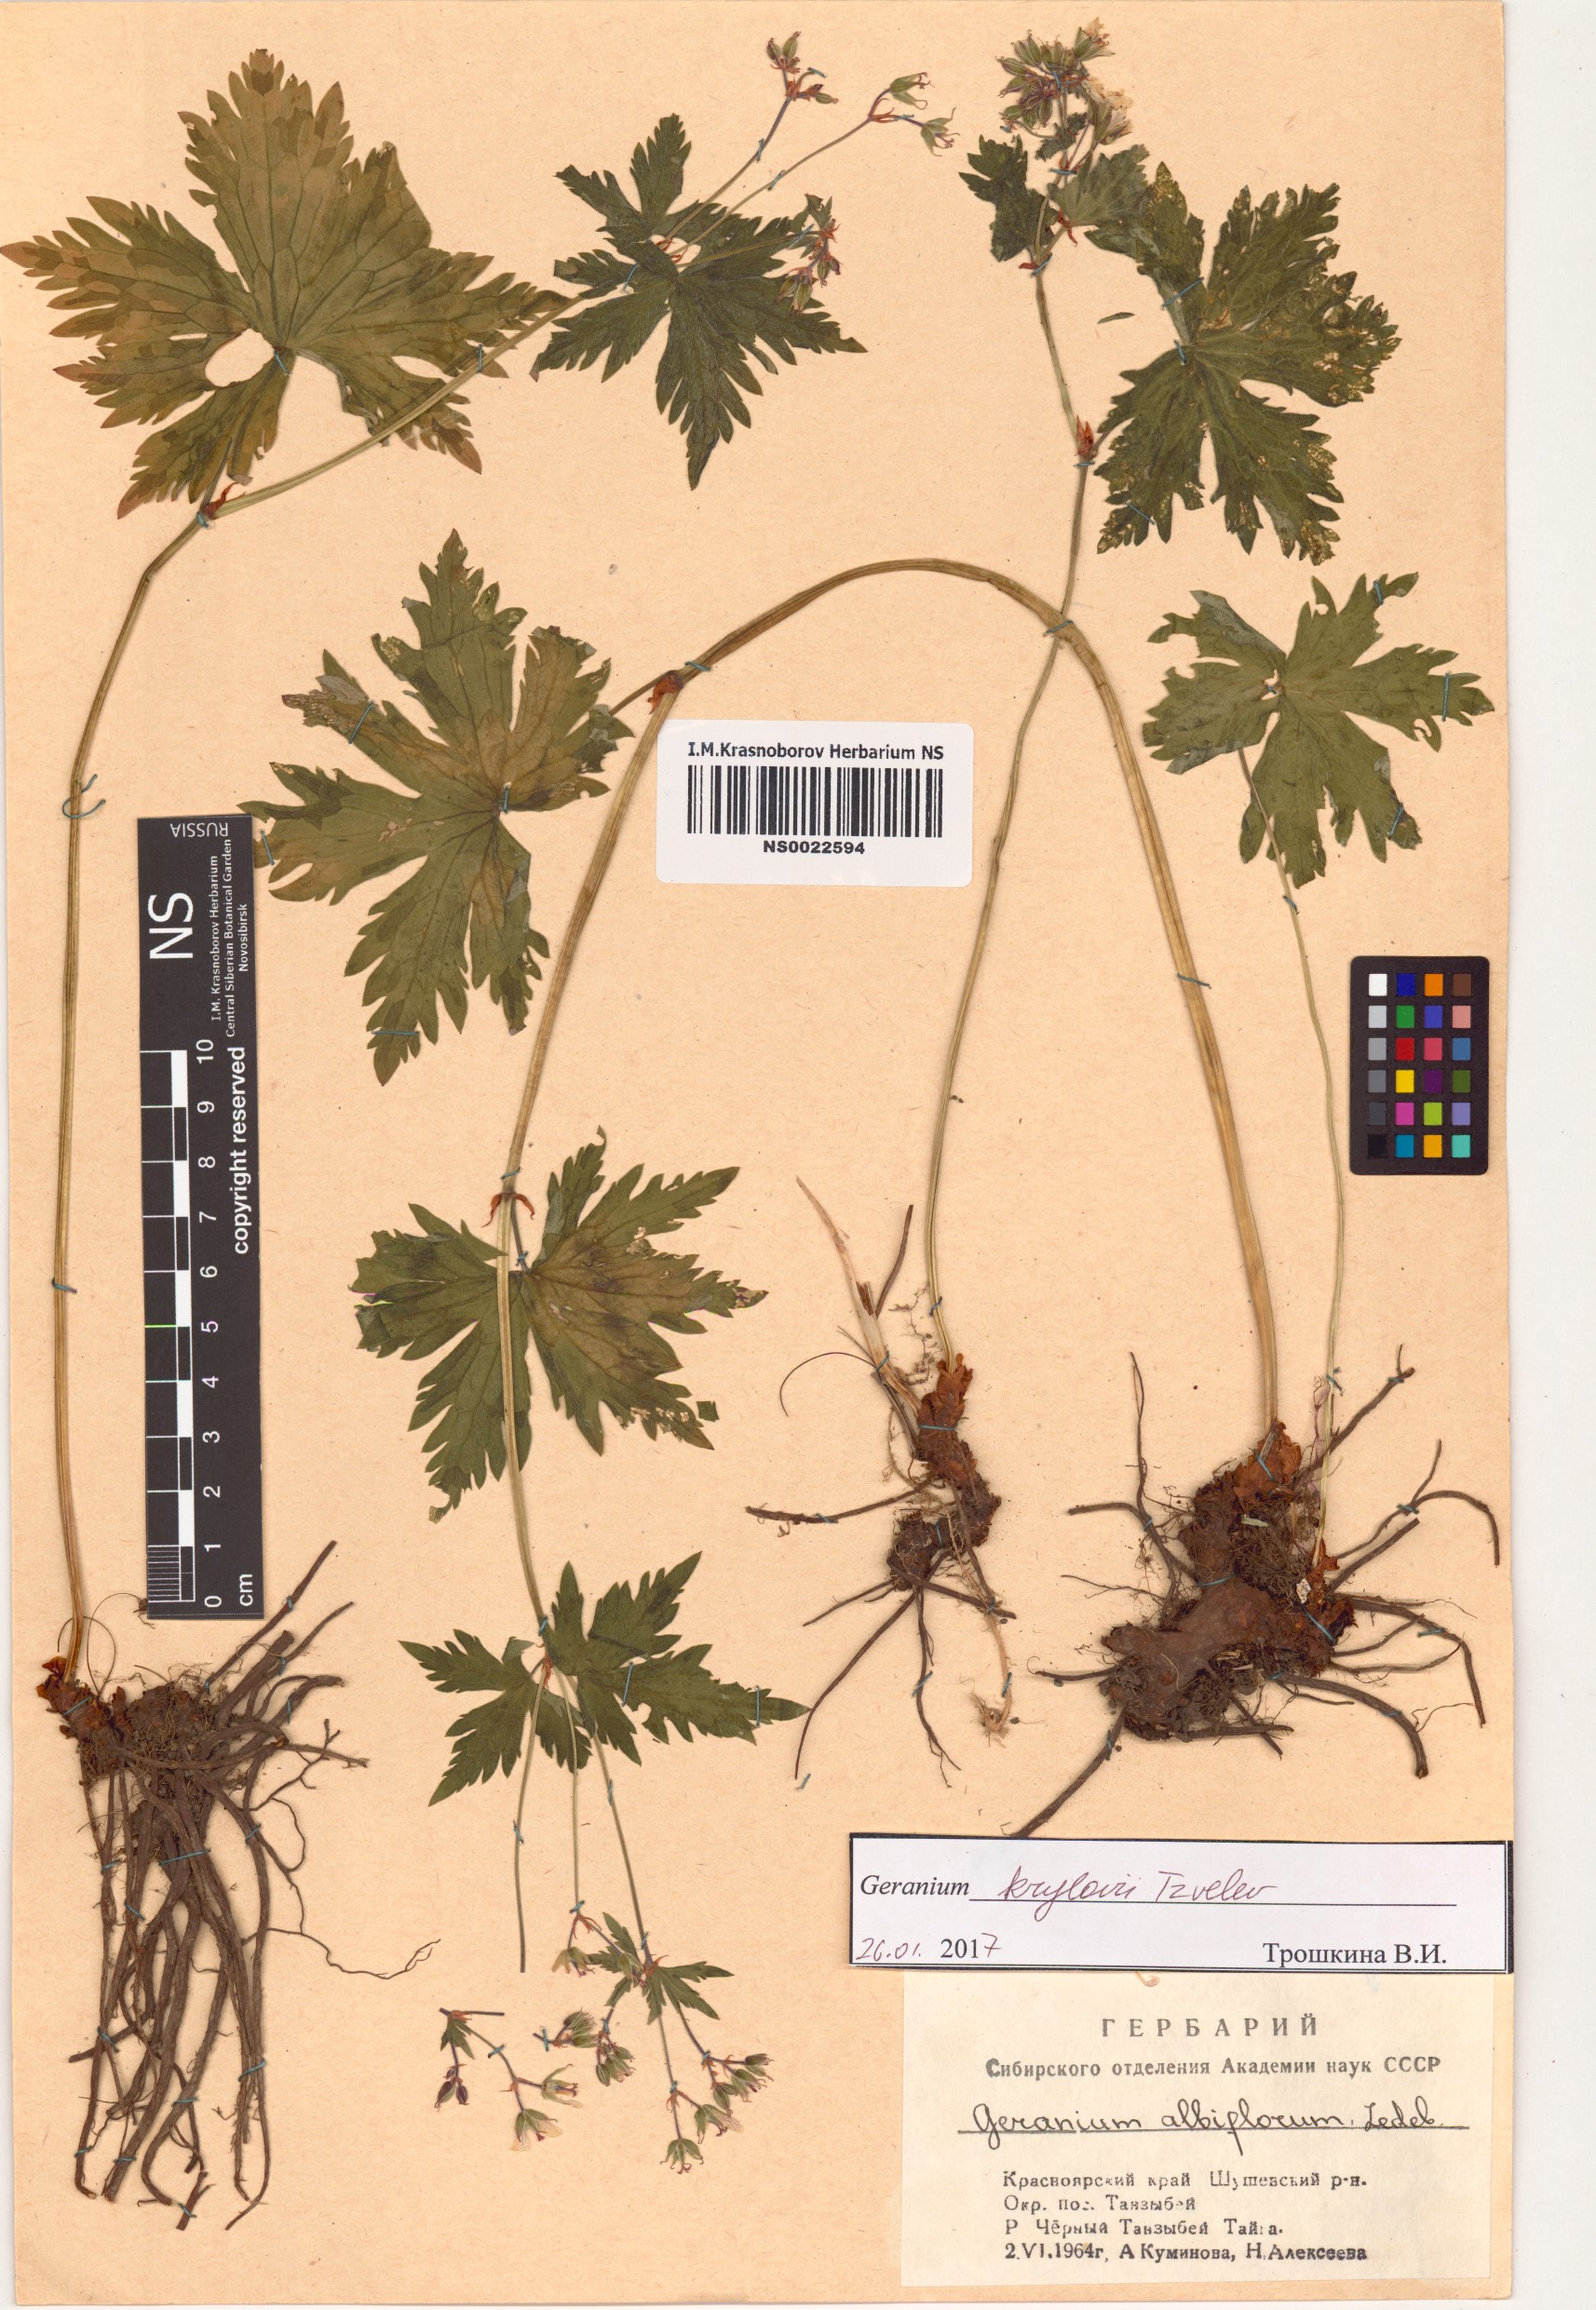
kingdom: Plantae
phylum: Tracheophyta
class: Magnoliopsida
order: Geraniales
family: Geraniaceae
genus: Geranium
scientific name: Geranium sylvaticum
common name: Wood crane's-bill
